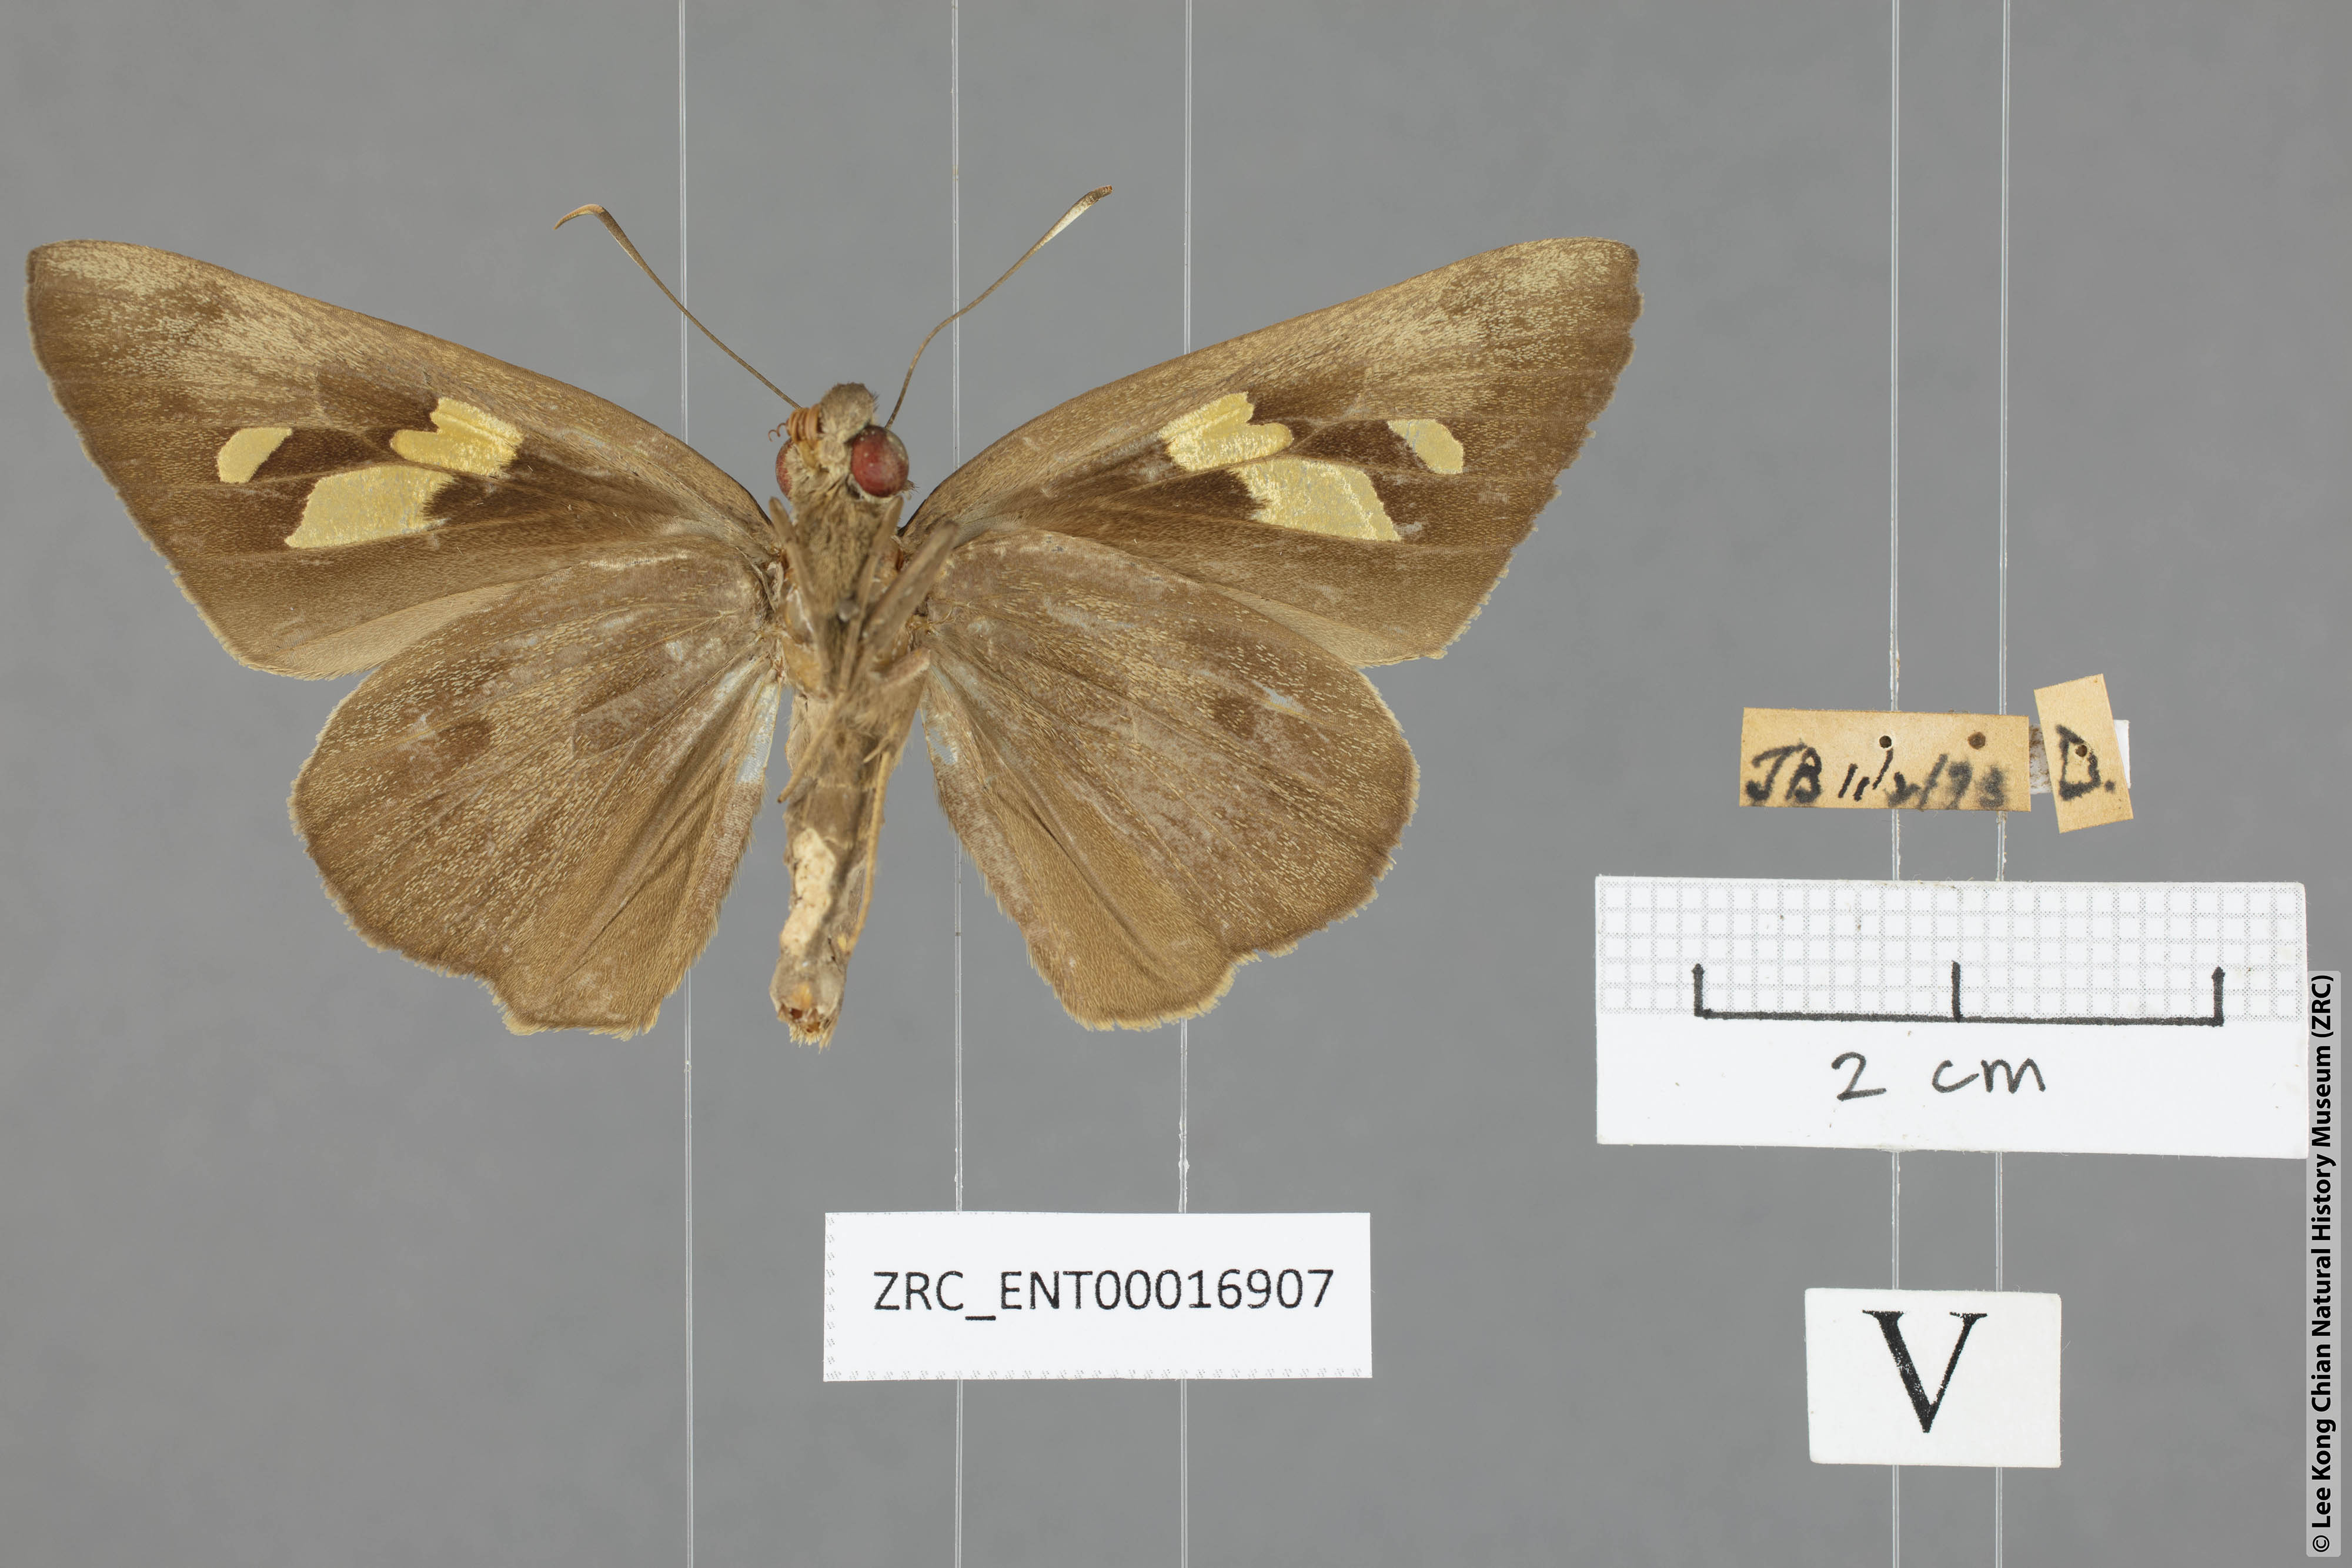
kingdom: Animalia
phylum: Arthropoda
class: Insecta
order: Lepidoptera
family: Hesperiidae
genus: Erionota
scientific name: Erionota
